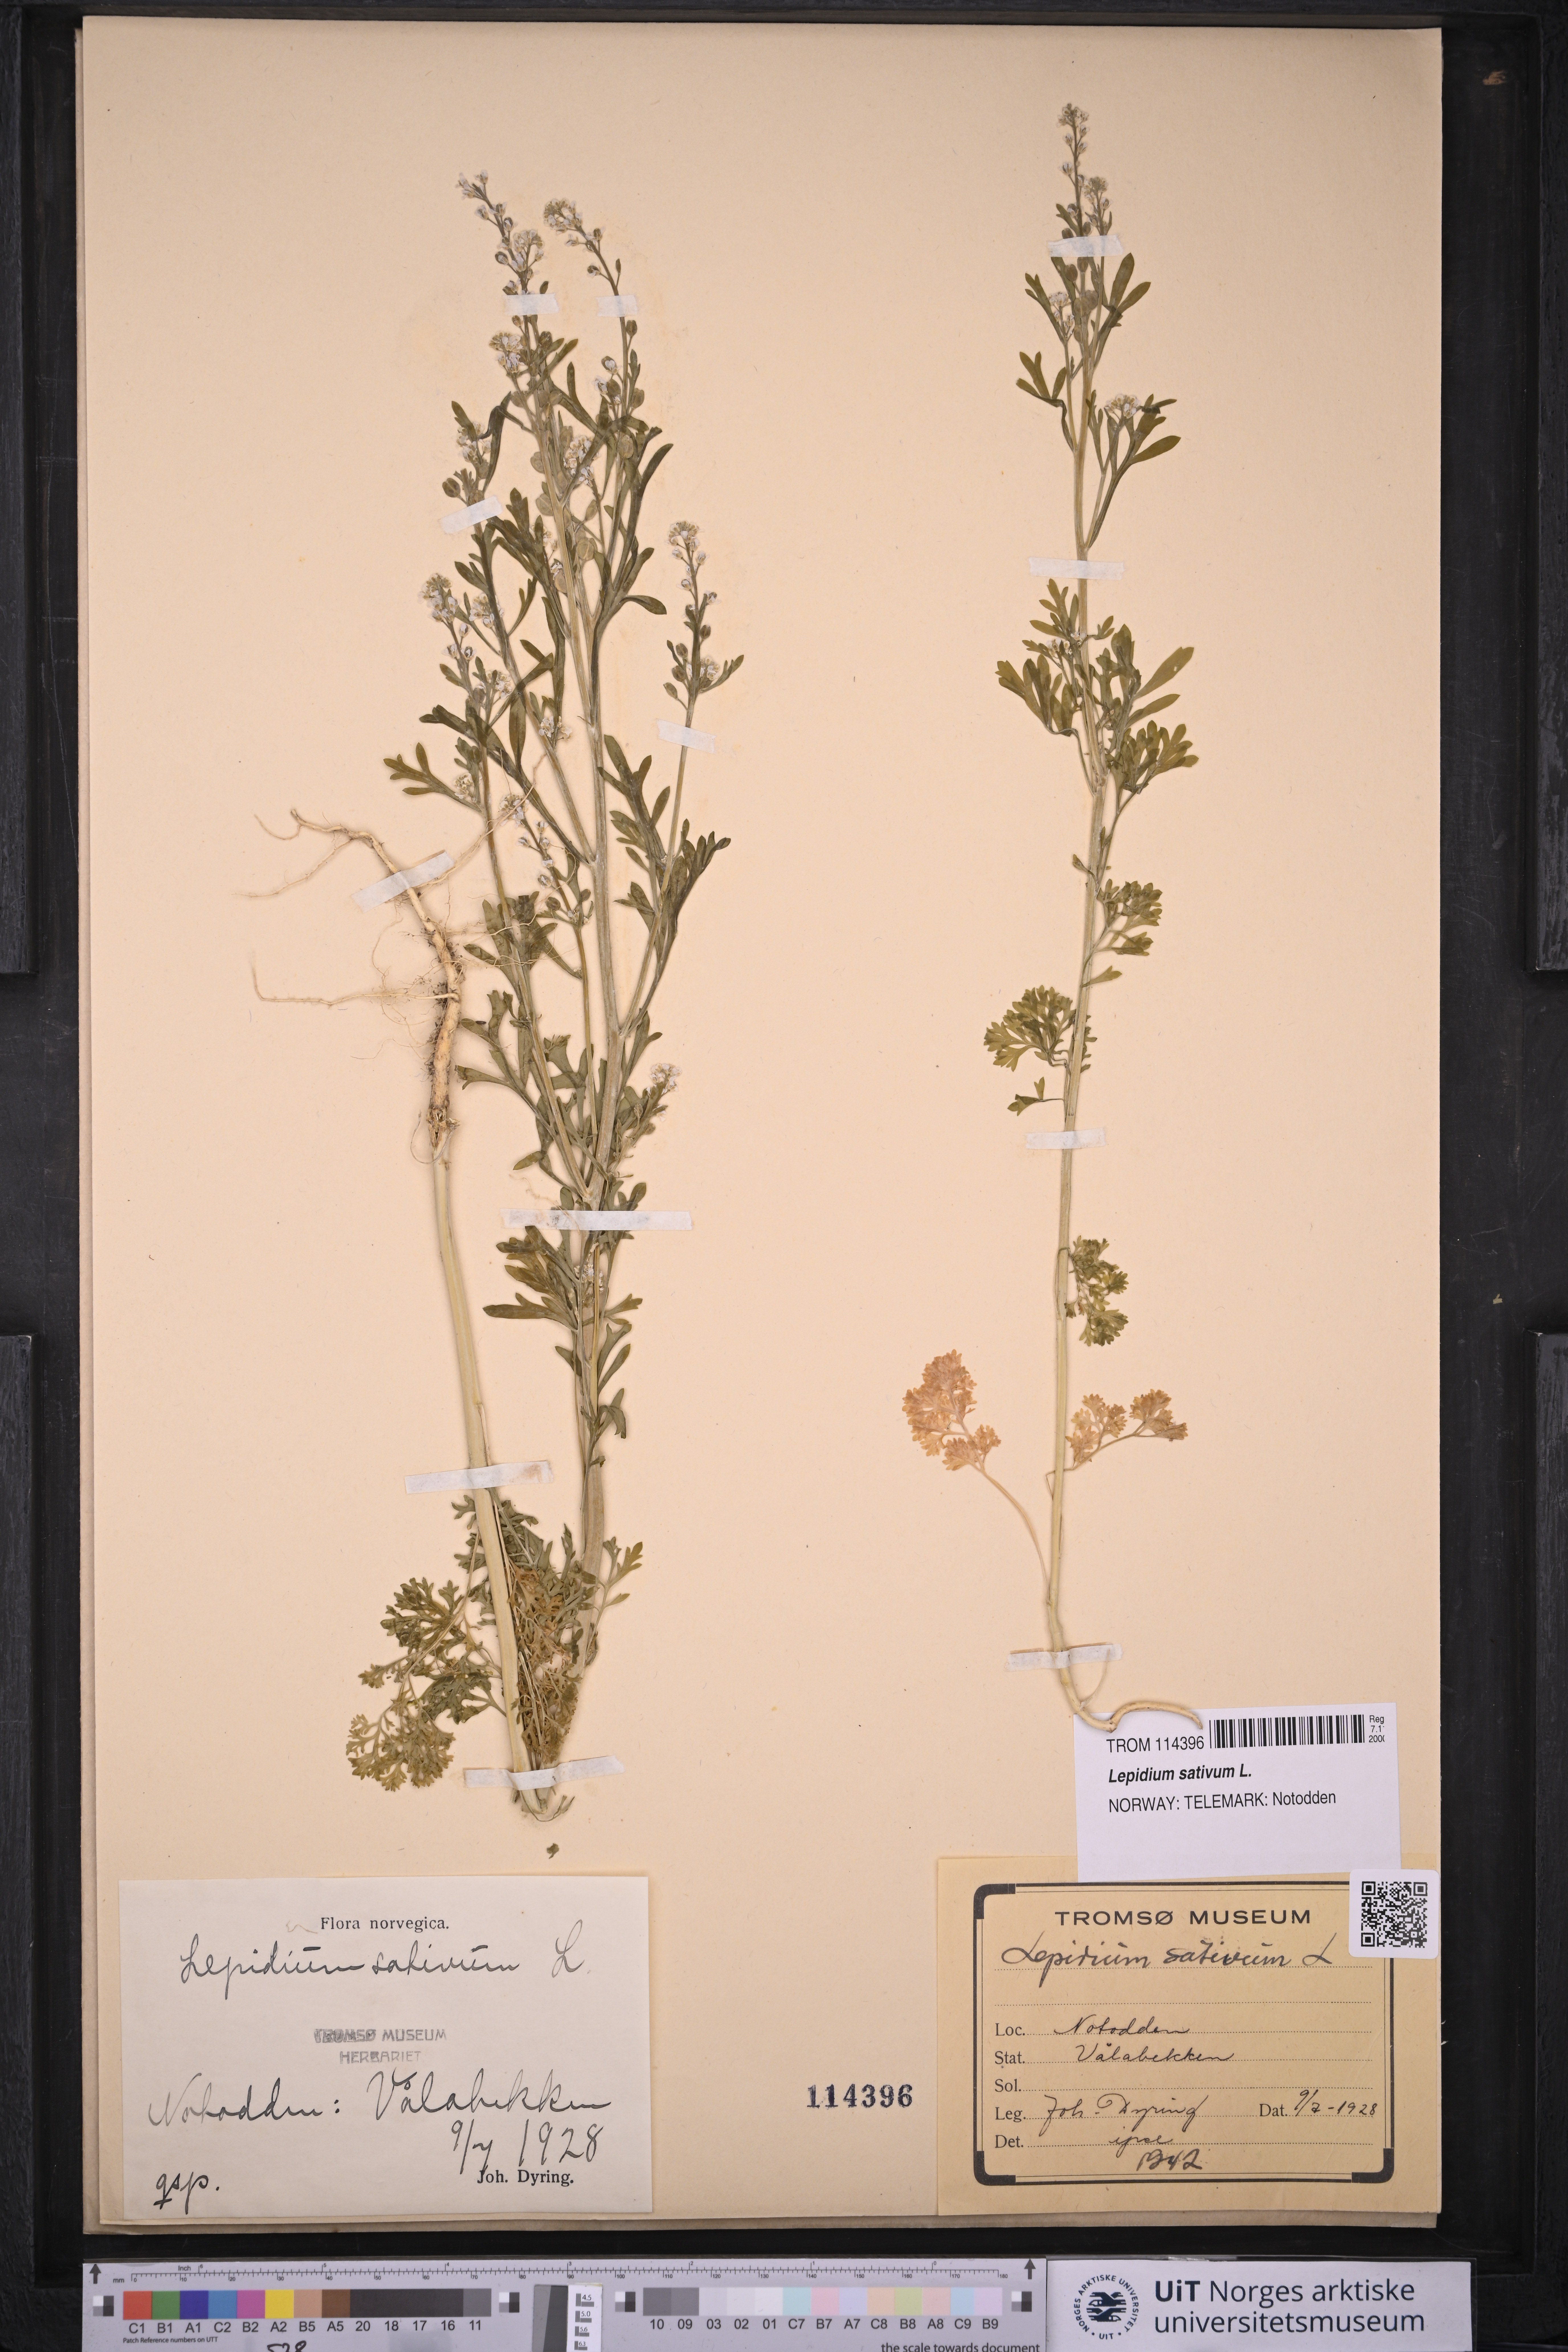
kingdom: Plantae
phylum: Tracheophyta
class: Magnoliopsida
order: Brassicales
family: Brassicaceae
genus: Lepidium
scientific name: Lepidium sativum
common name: Garden cress
